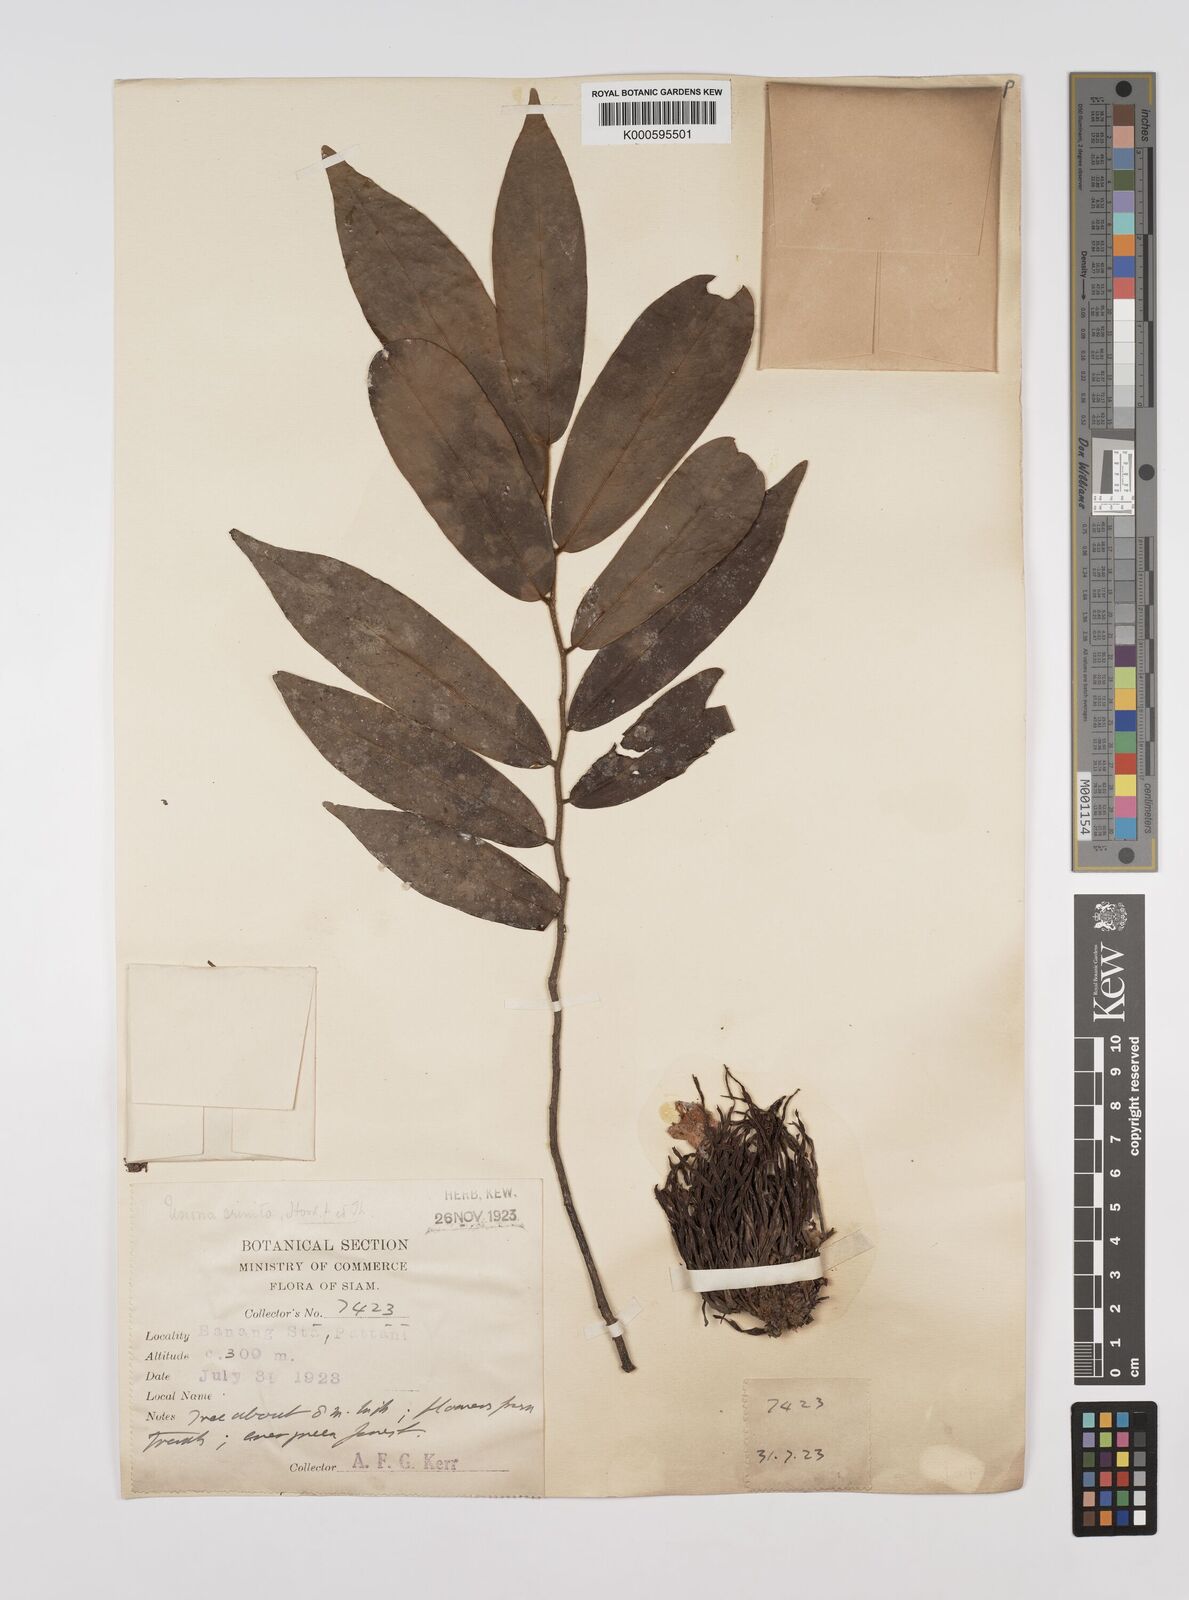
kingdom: Plantae
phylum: Tracheophyta
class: Magnoliopsida
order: Magnoliales
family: Annonaceae
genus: Polyalthia
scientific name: Polyalthia stenopetala
